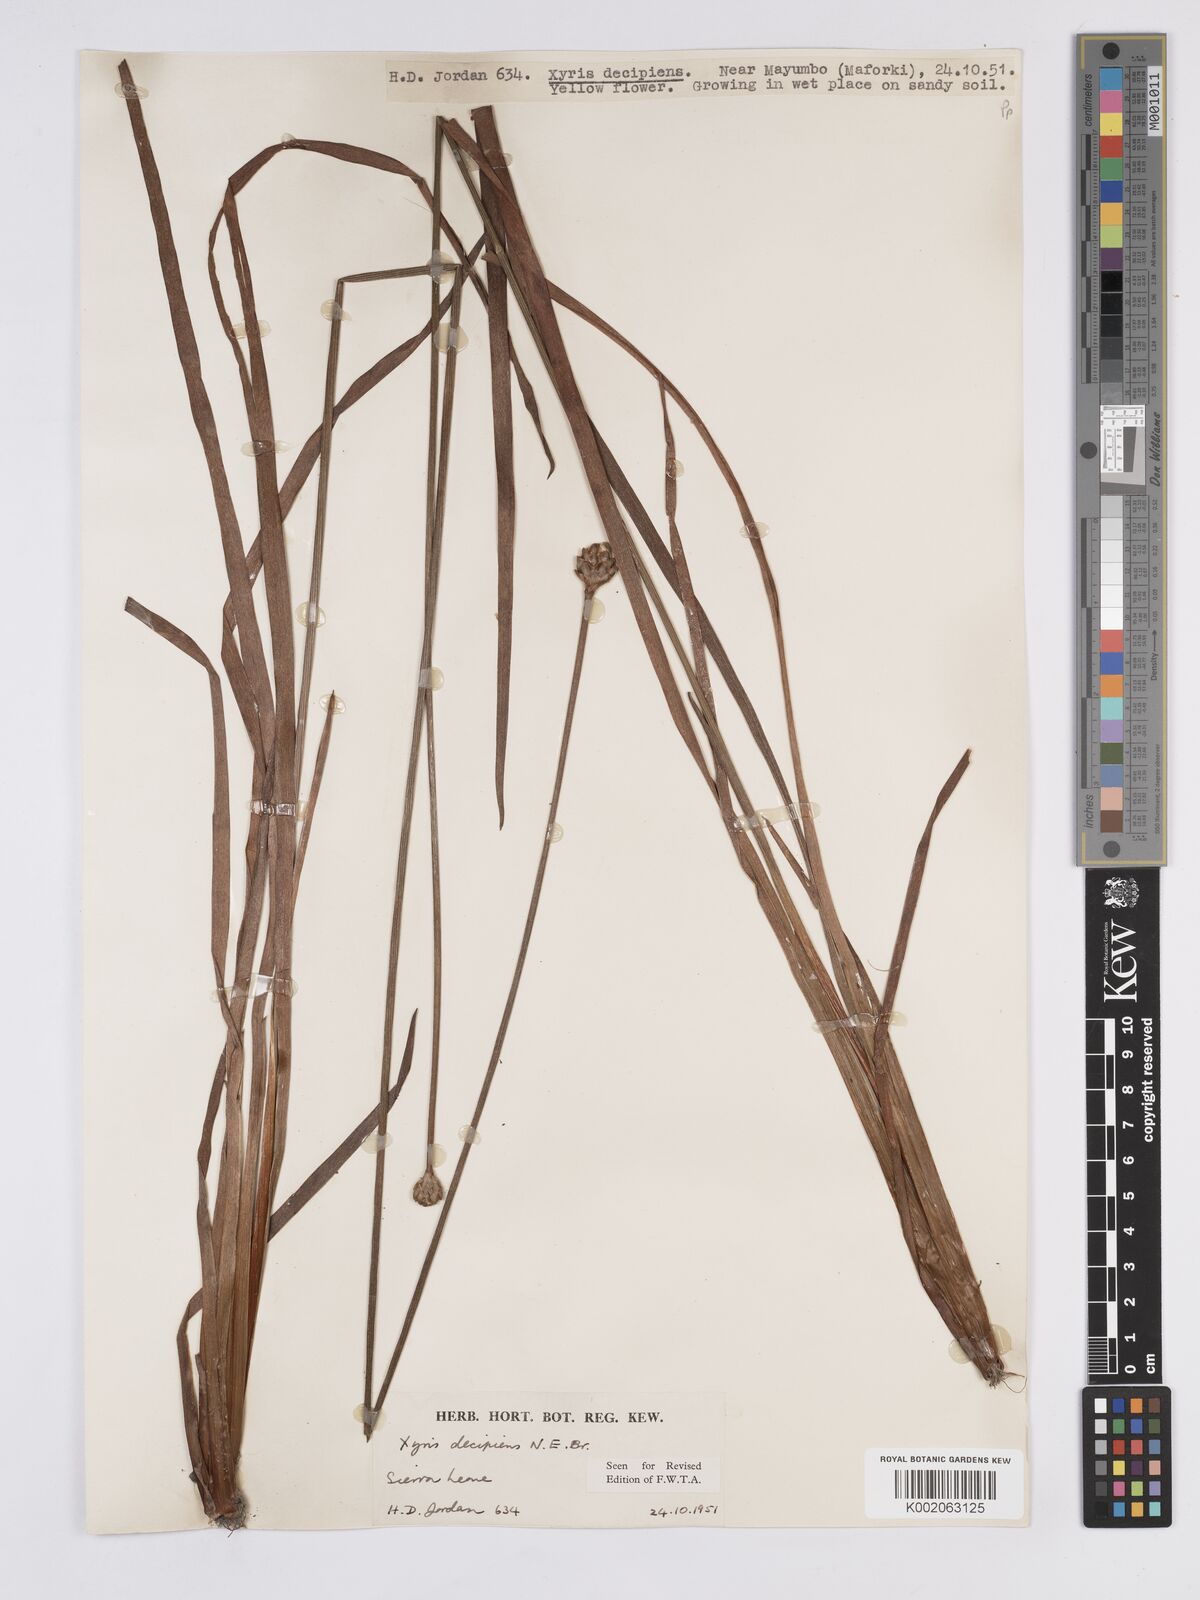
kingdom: Plantae
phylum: Tracheophyta
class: Liliopsida
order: Poales
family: Xyridaceae
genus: Xyris
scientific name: Xyris decipiens
